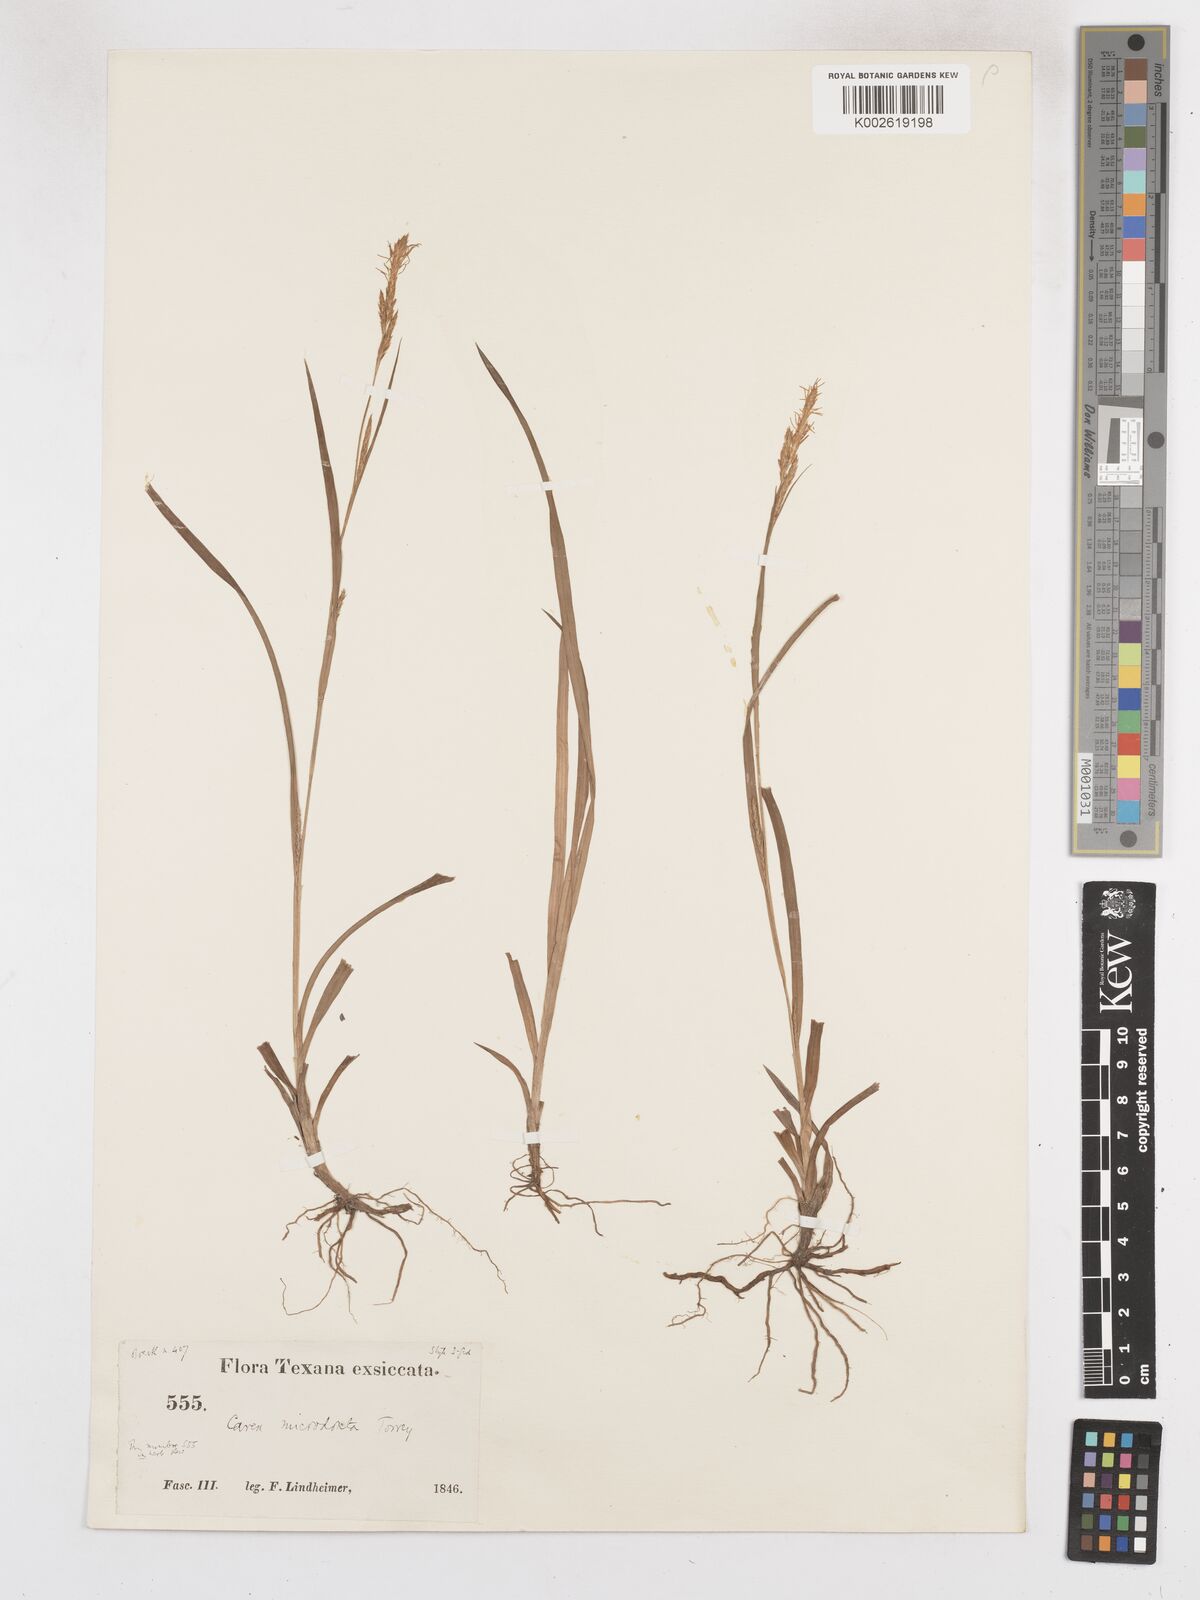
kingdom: Plantae
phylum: Tracheophyta
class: Liliopsida
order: Poales
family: Cyperaceae
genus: Carex
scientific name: Carex microdonta
